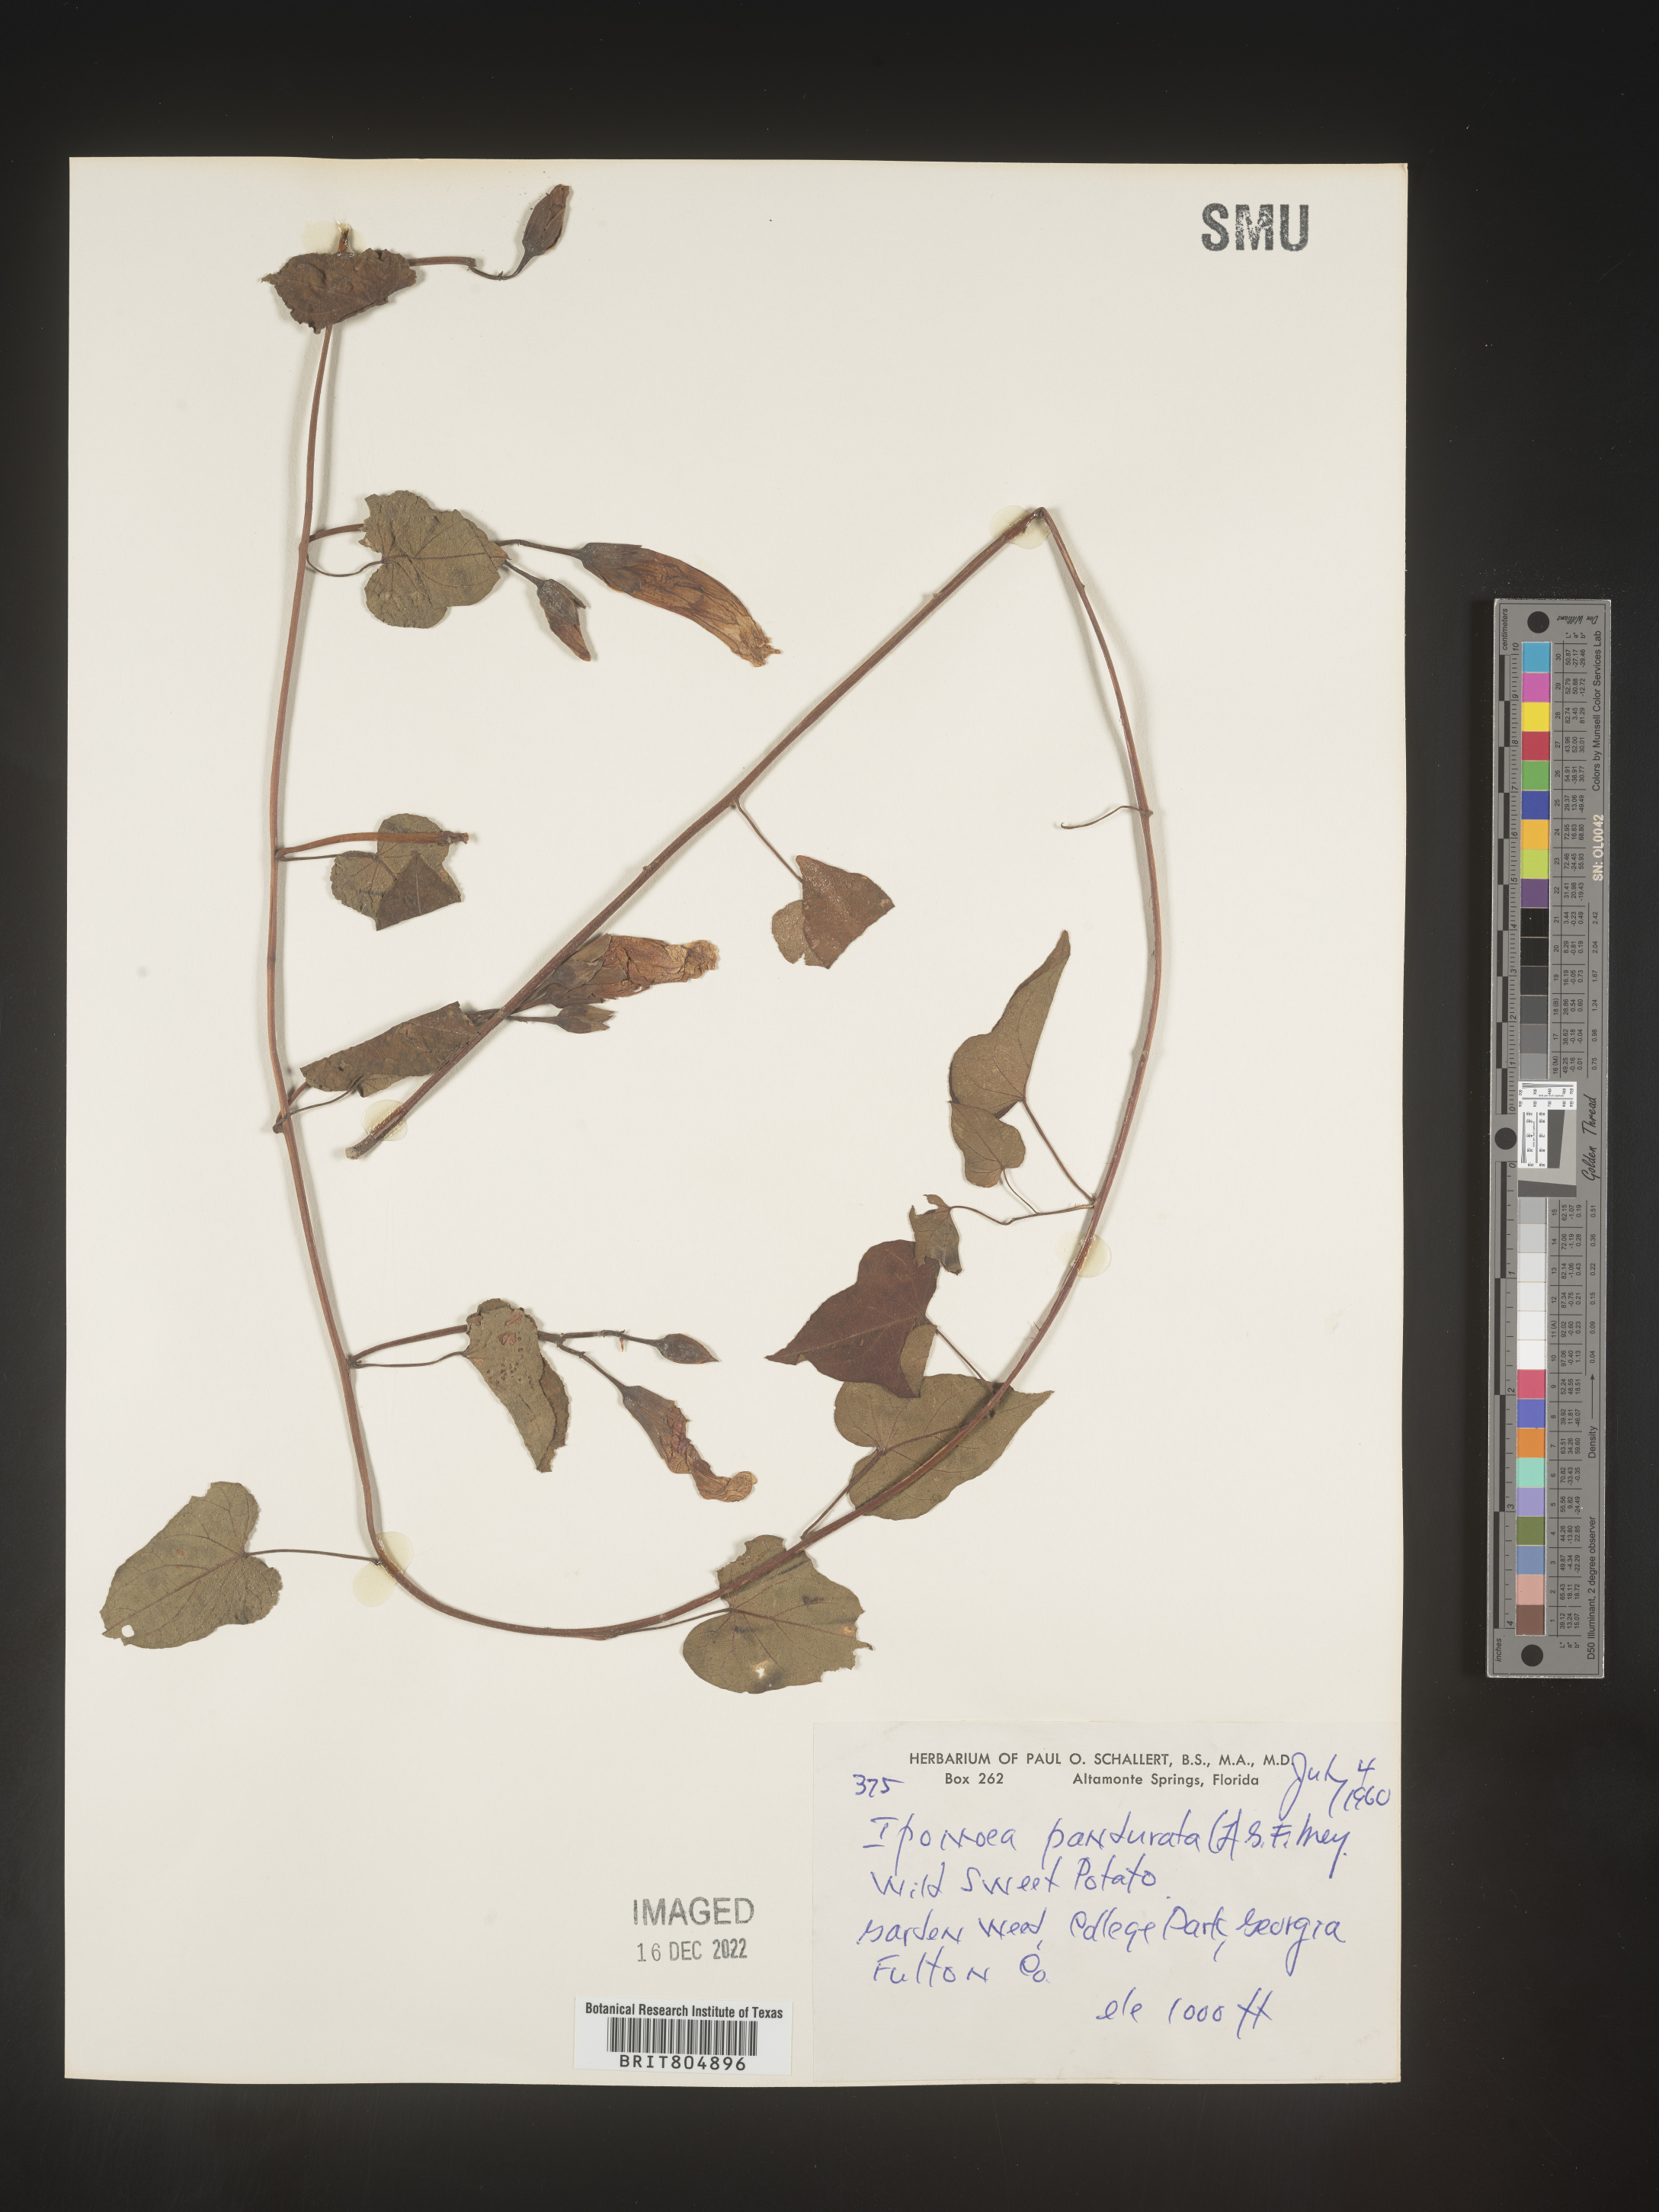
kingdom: Plantae
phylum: Tracheophyta
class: Magnoliopsida
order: Solanales
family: Convolvulaceae
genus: Ipomoea
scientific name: Ipomoea pandurata
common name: Man-of-the-earth
